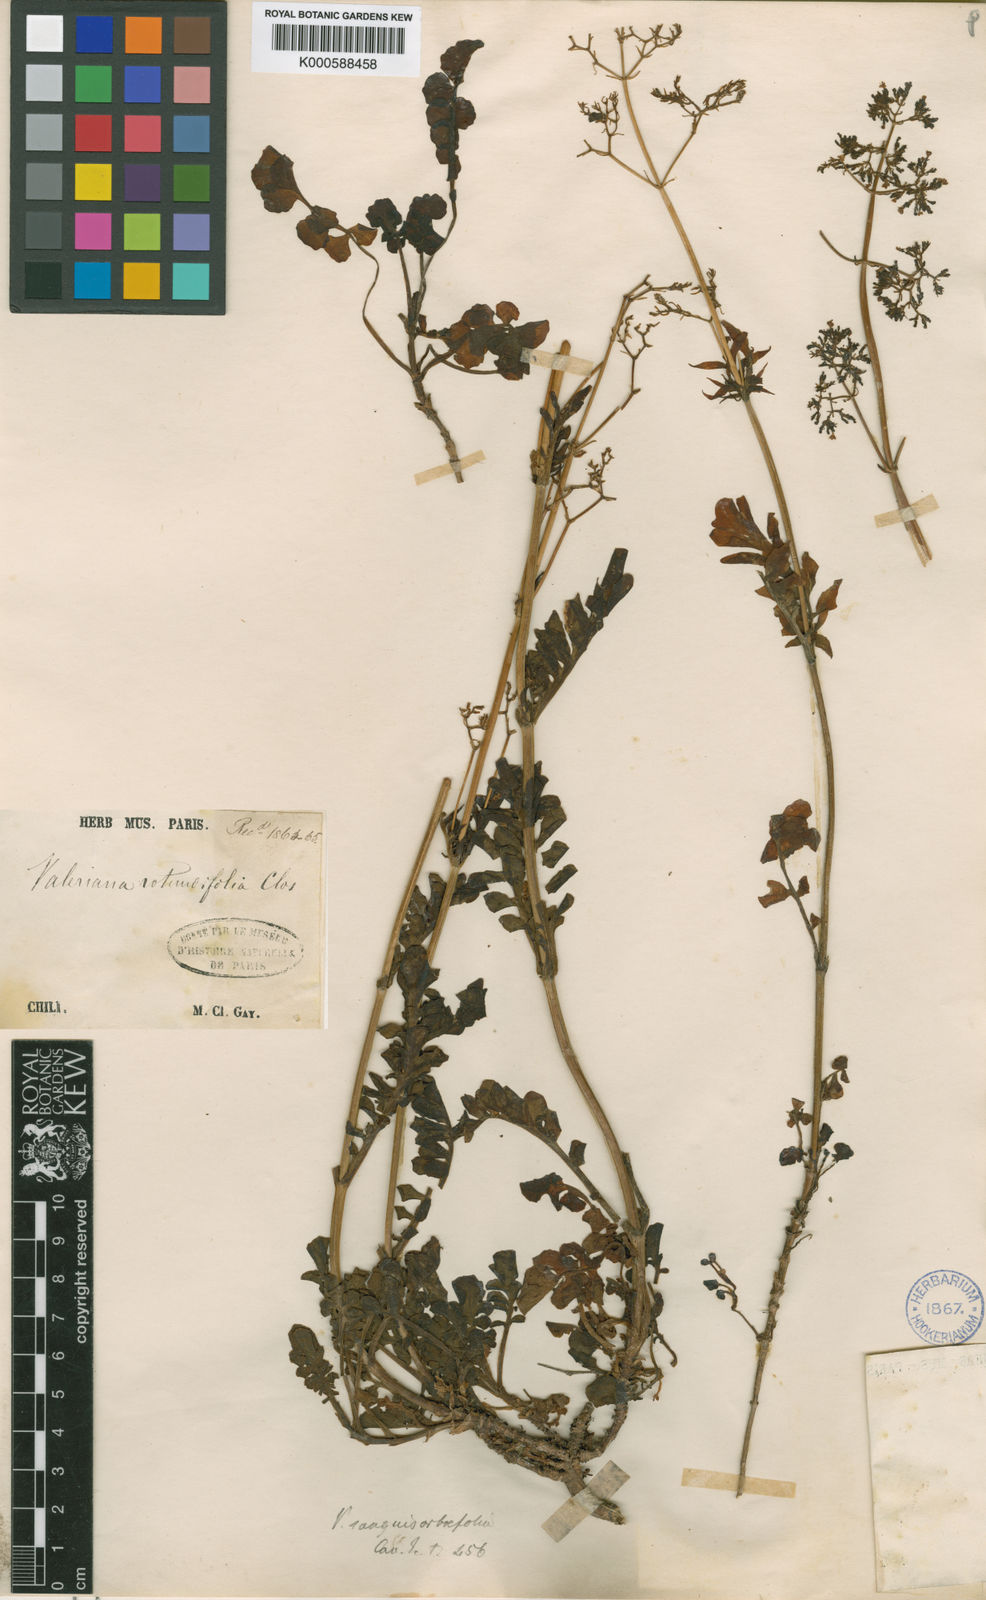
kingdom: Plantae
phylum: Tracheophyta
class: Magnoliopsida
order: Dipsacales
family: Caprifoliaceae
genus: Valeriana
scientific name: Valeriana
